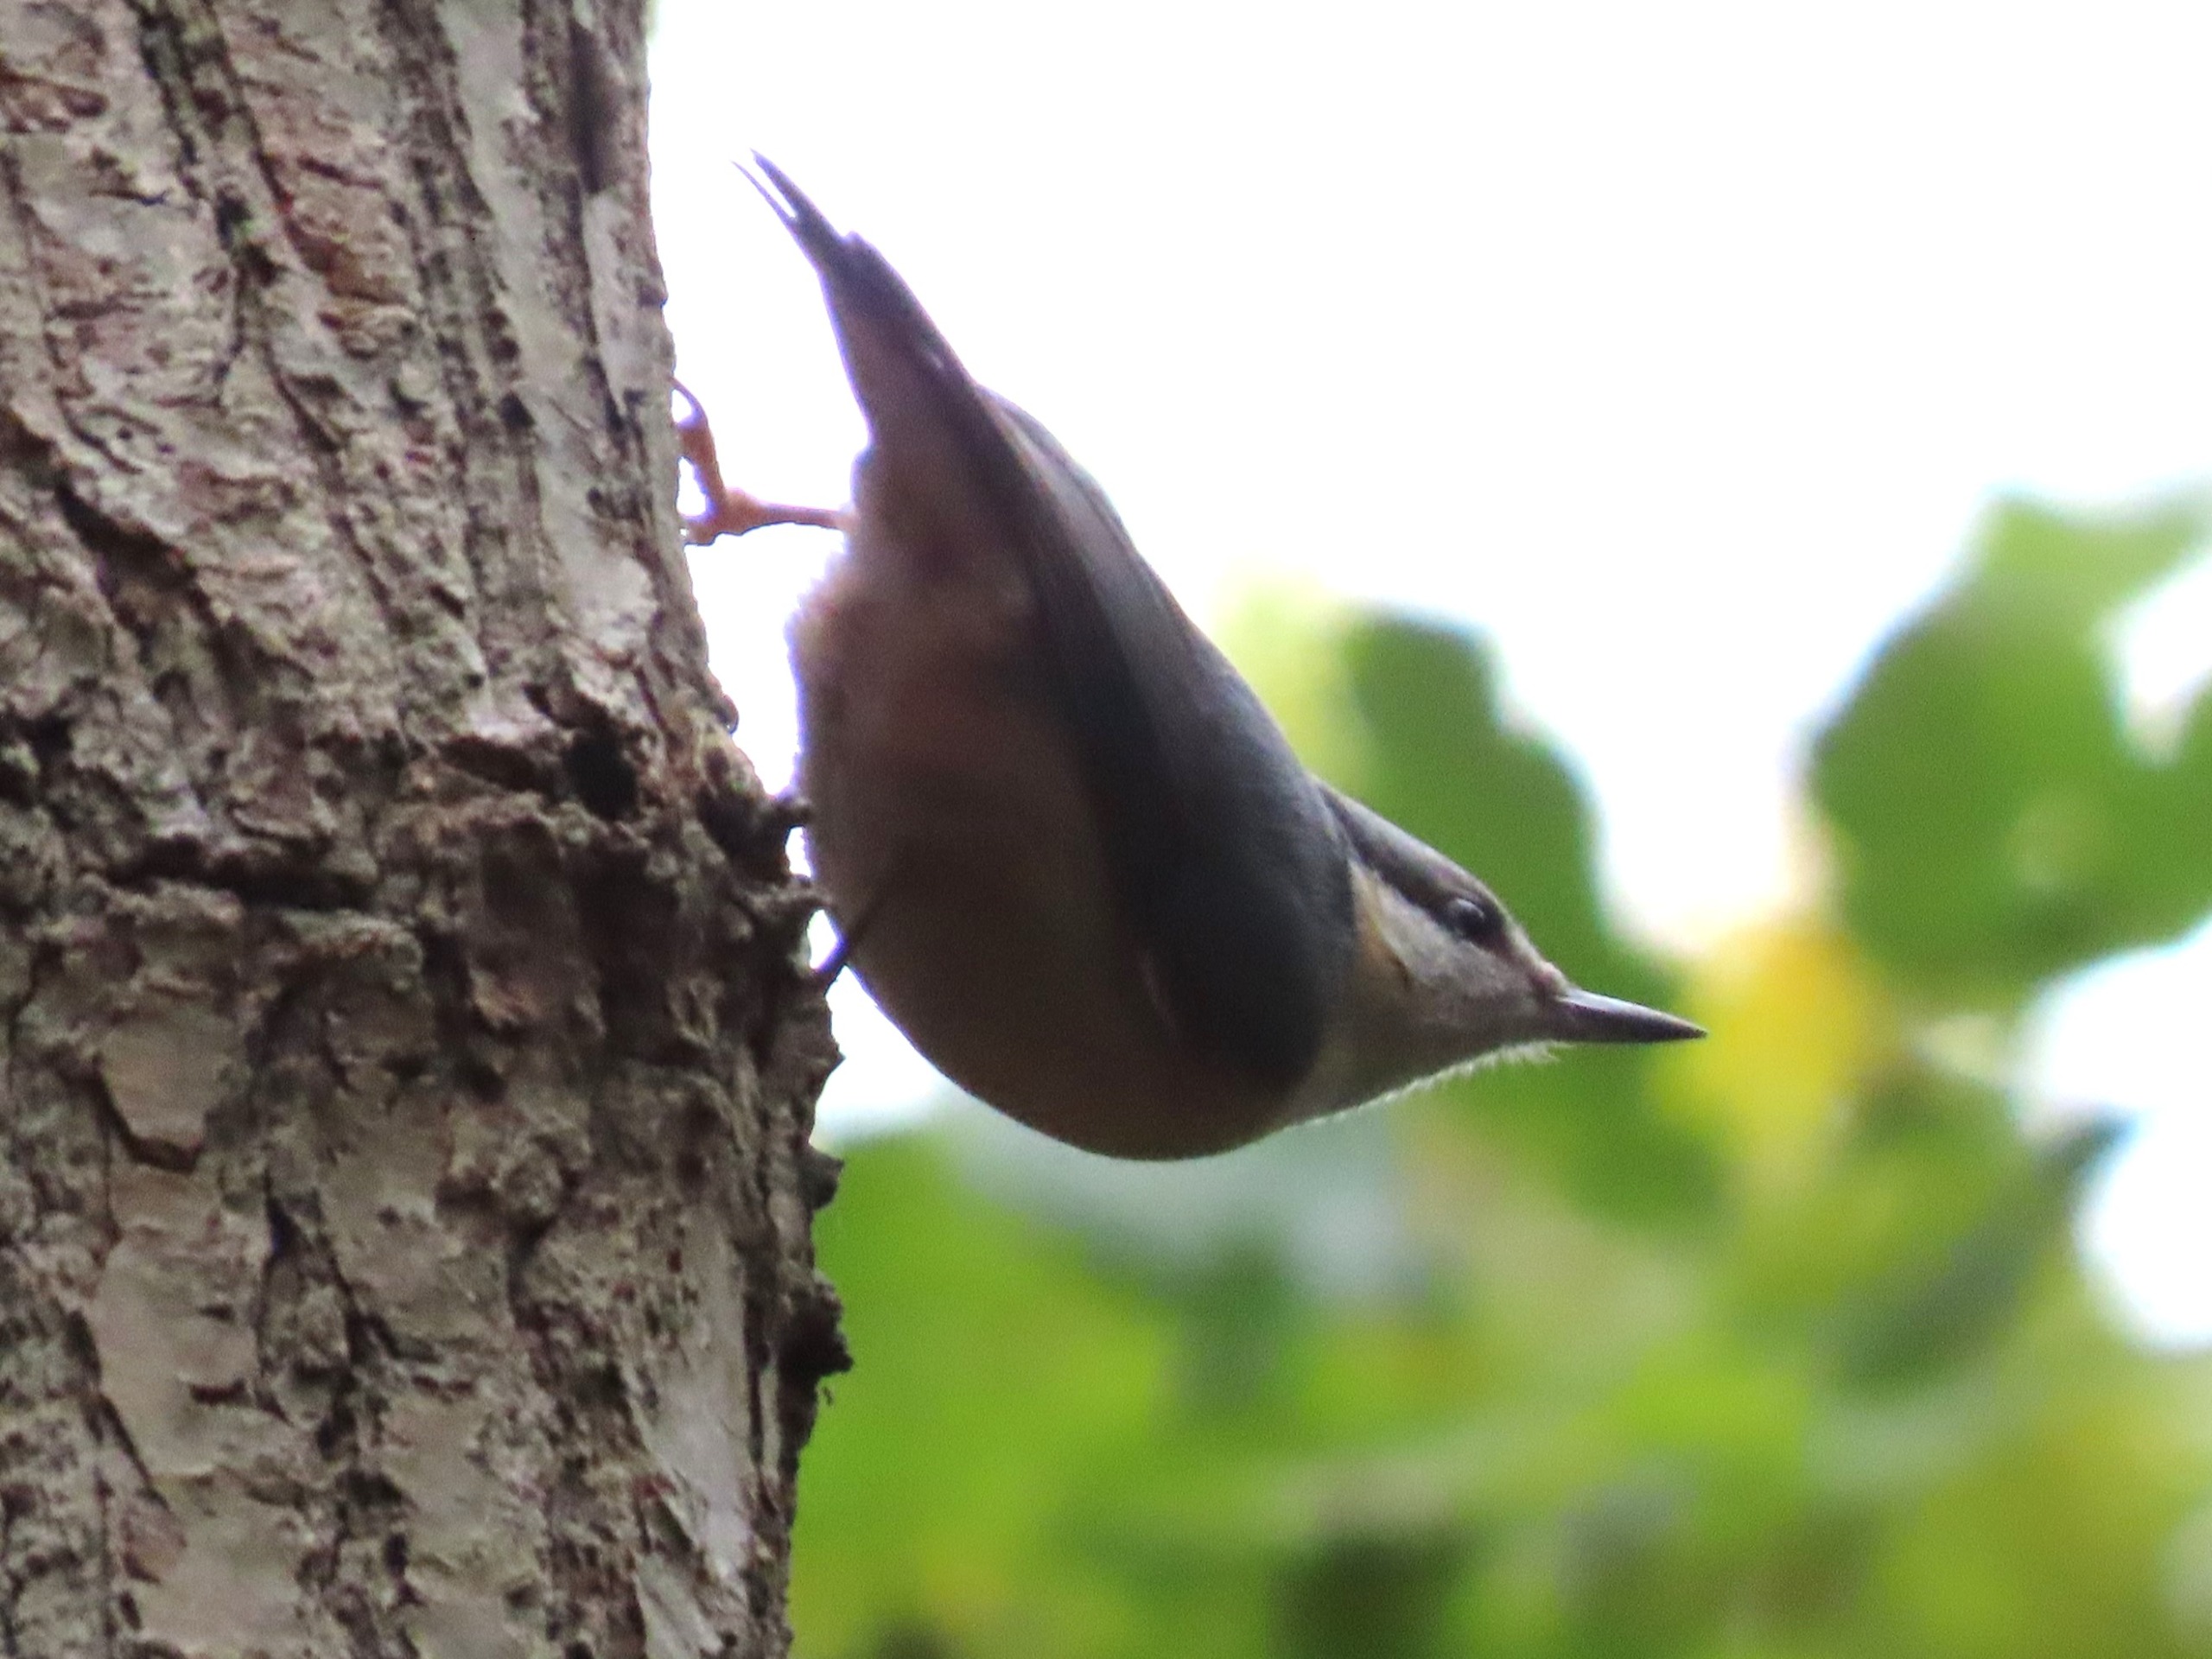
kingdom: Animalia
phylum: Chordata
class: Aves
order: Passeriformes
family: Sittidae
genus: Sitta
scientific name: Sitta europaea
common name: Spætmejse
